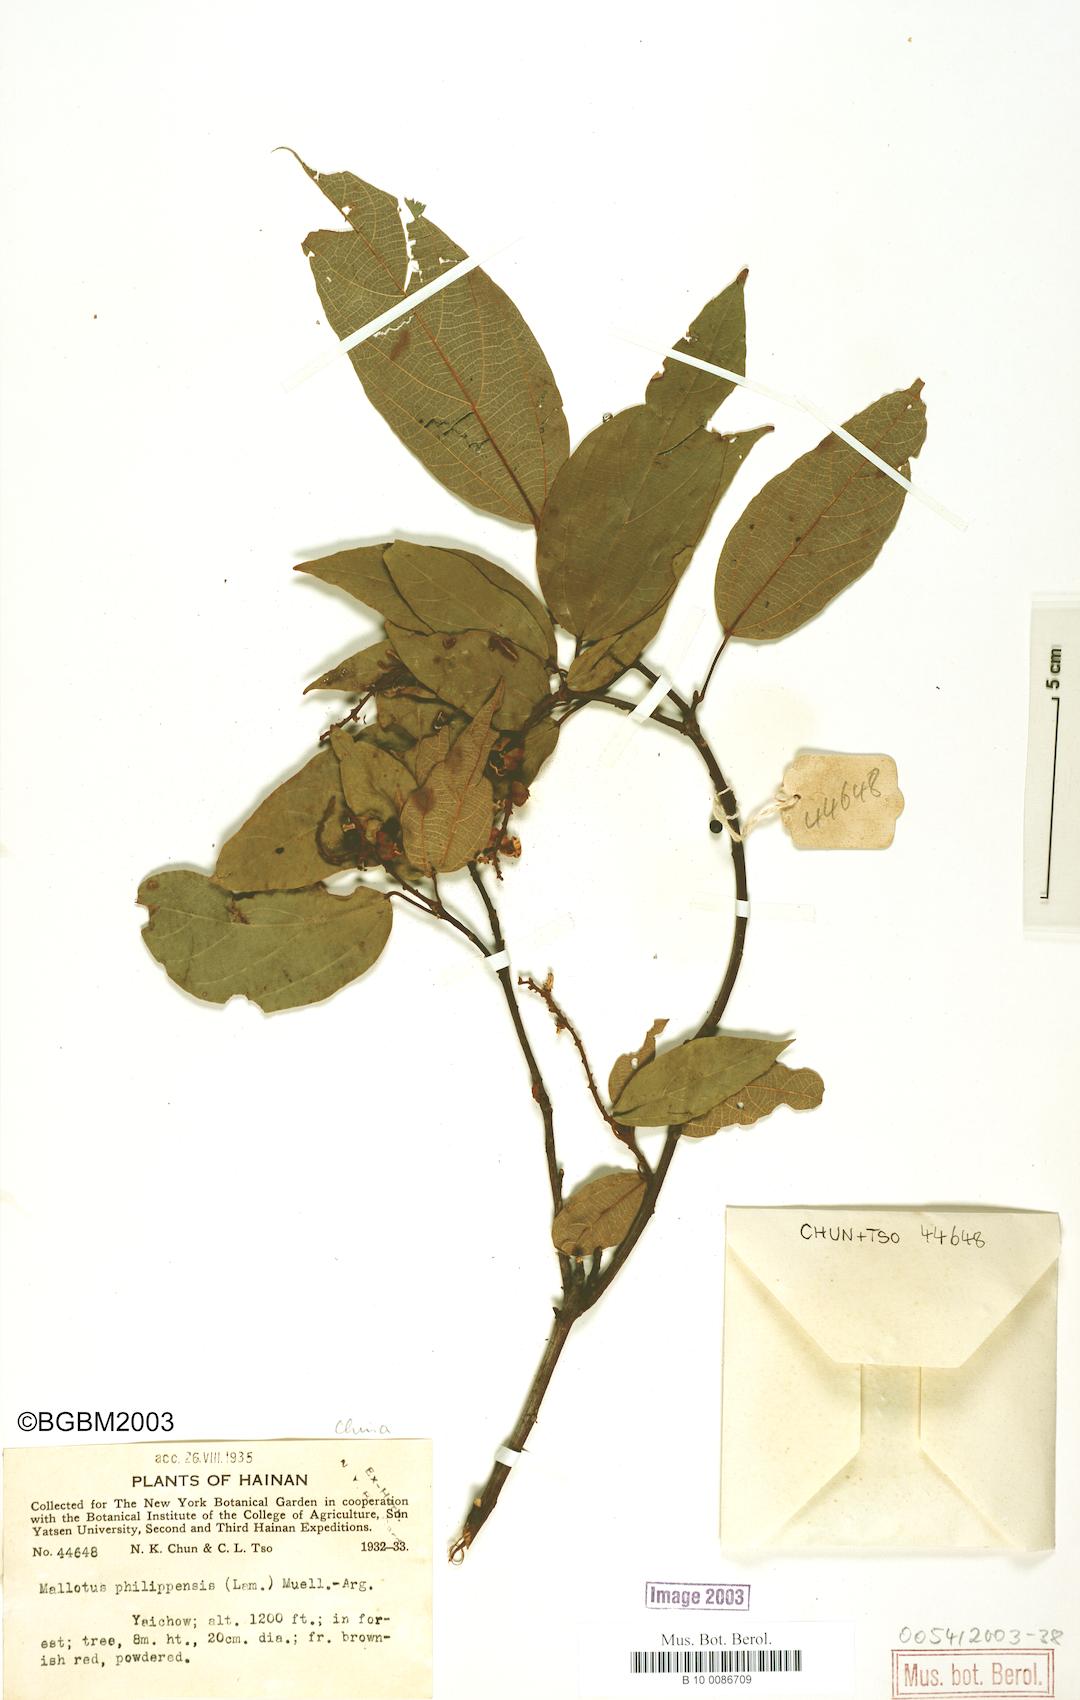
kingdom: Plantae
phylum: Tracheophyta
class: Magnoliopsida
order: Malpighiales
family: Euphorbiaceae
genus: Mallotus
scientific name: Mallotus philippensis
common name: Kamala tree
